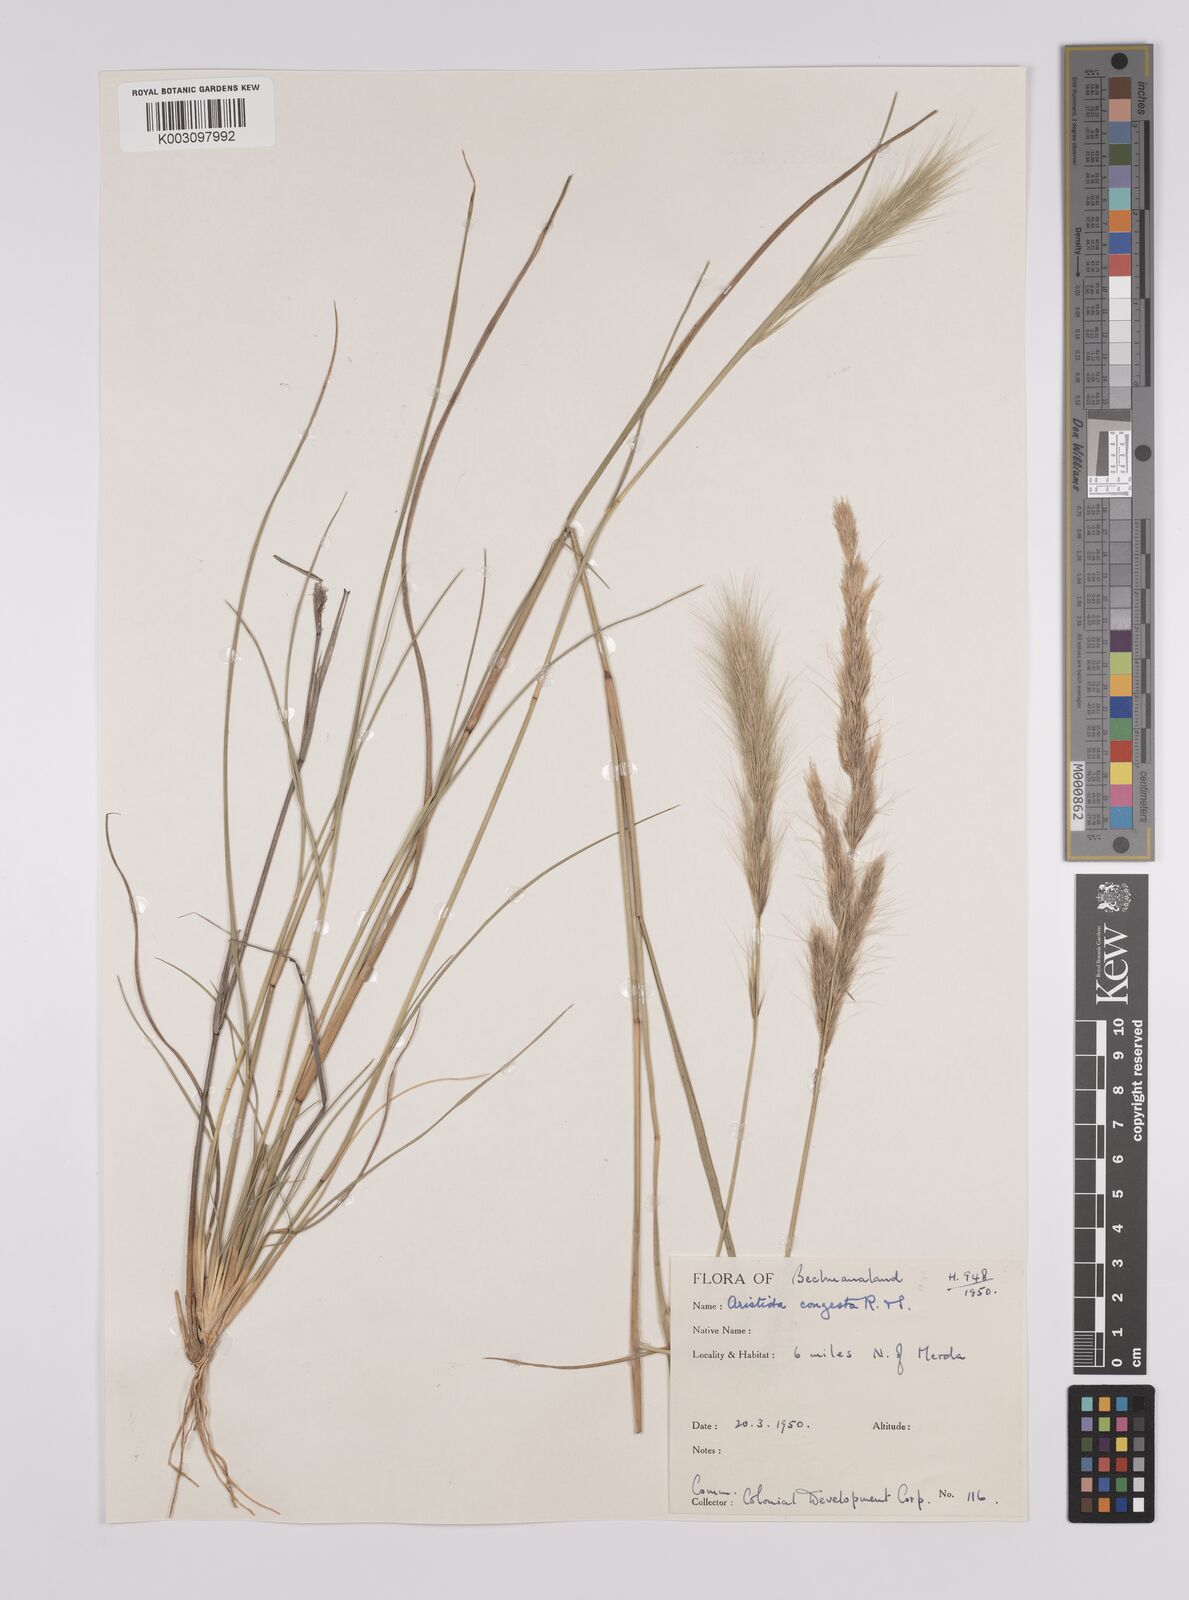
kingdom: Plantae
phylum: Tracheophyta
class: Liliopsida
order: Poales
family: Poaceae
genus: Aristida
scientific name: Aristida congesta
